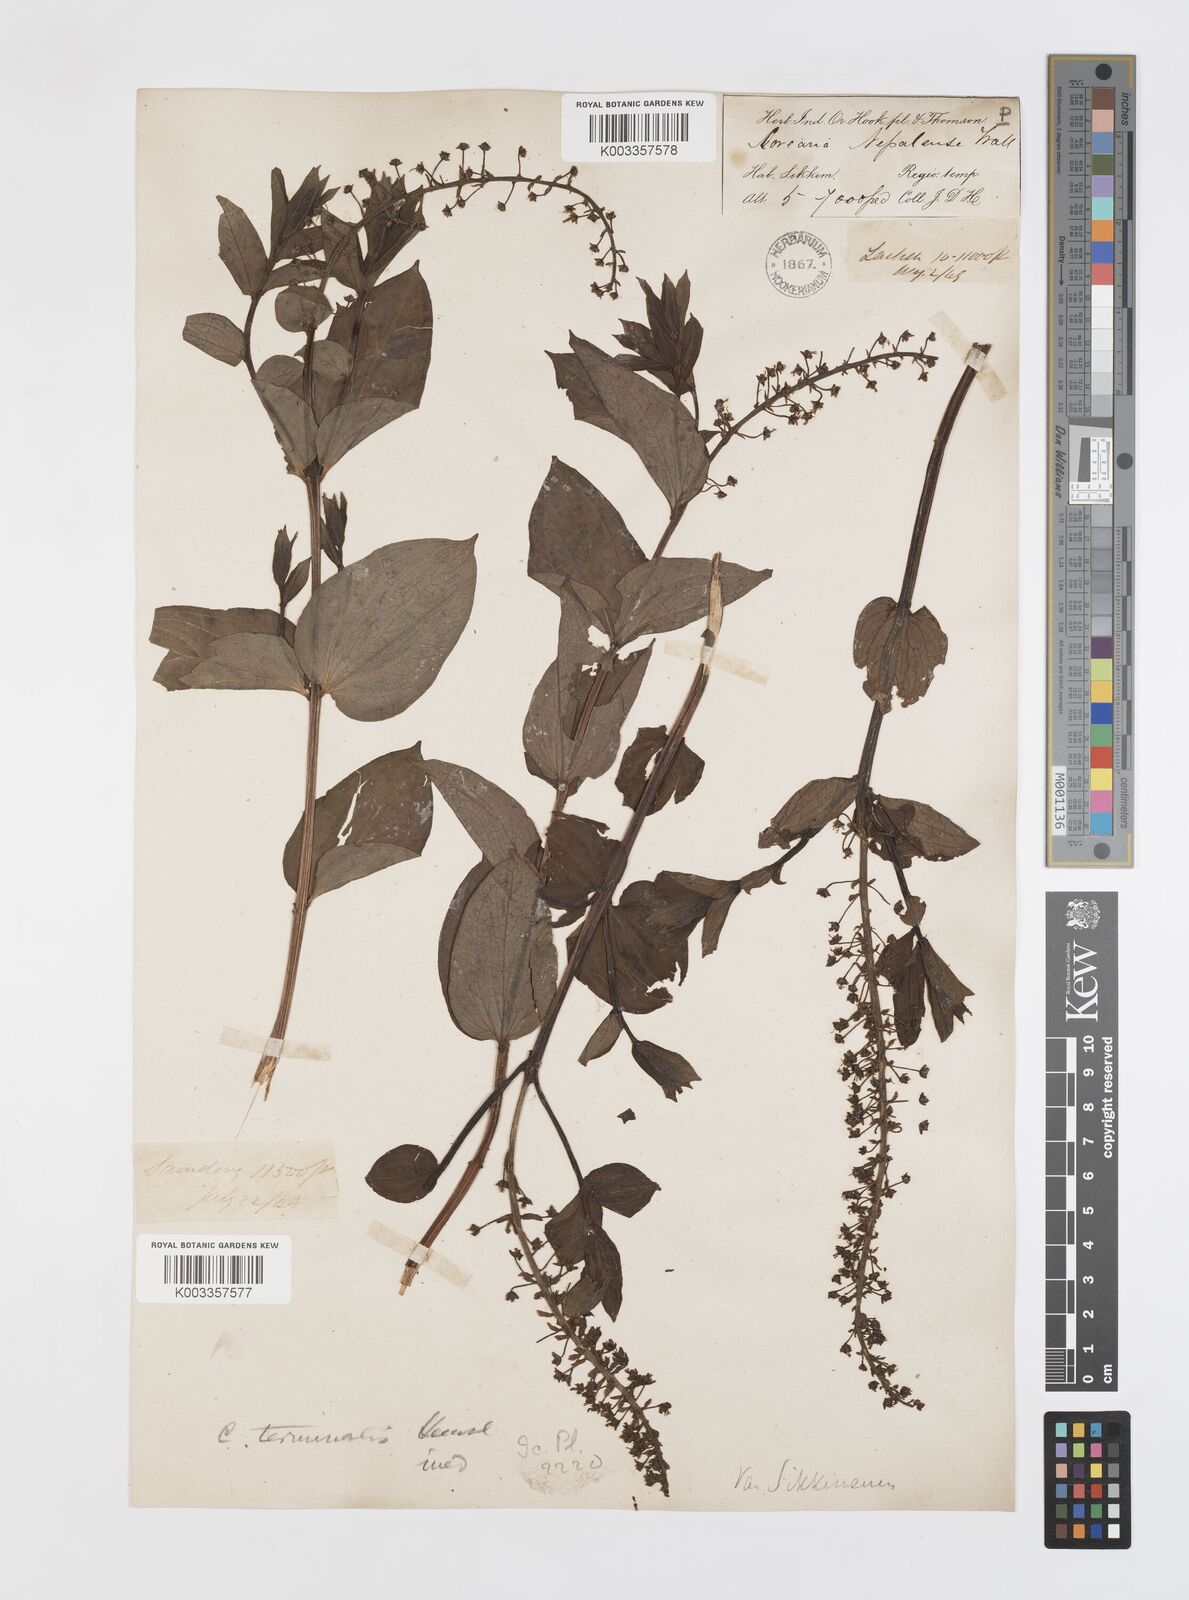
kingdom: Plantae
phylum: Tracheophyta
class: Magnoliopsida
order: Cucurbitales
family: Coriariaceae
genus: Coriaria
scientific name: Coriaria terminalis
